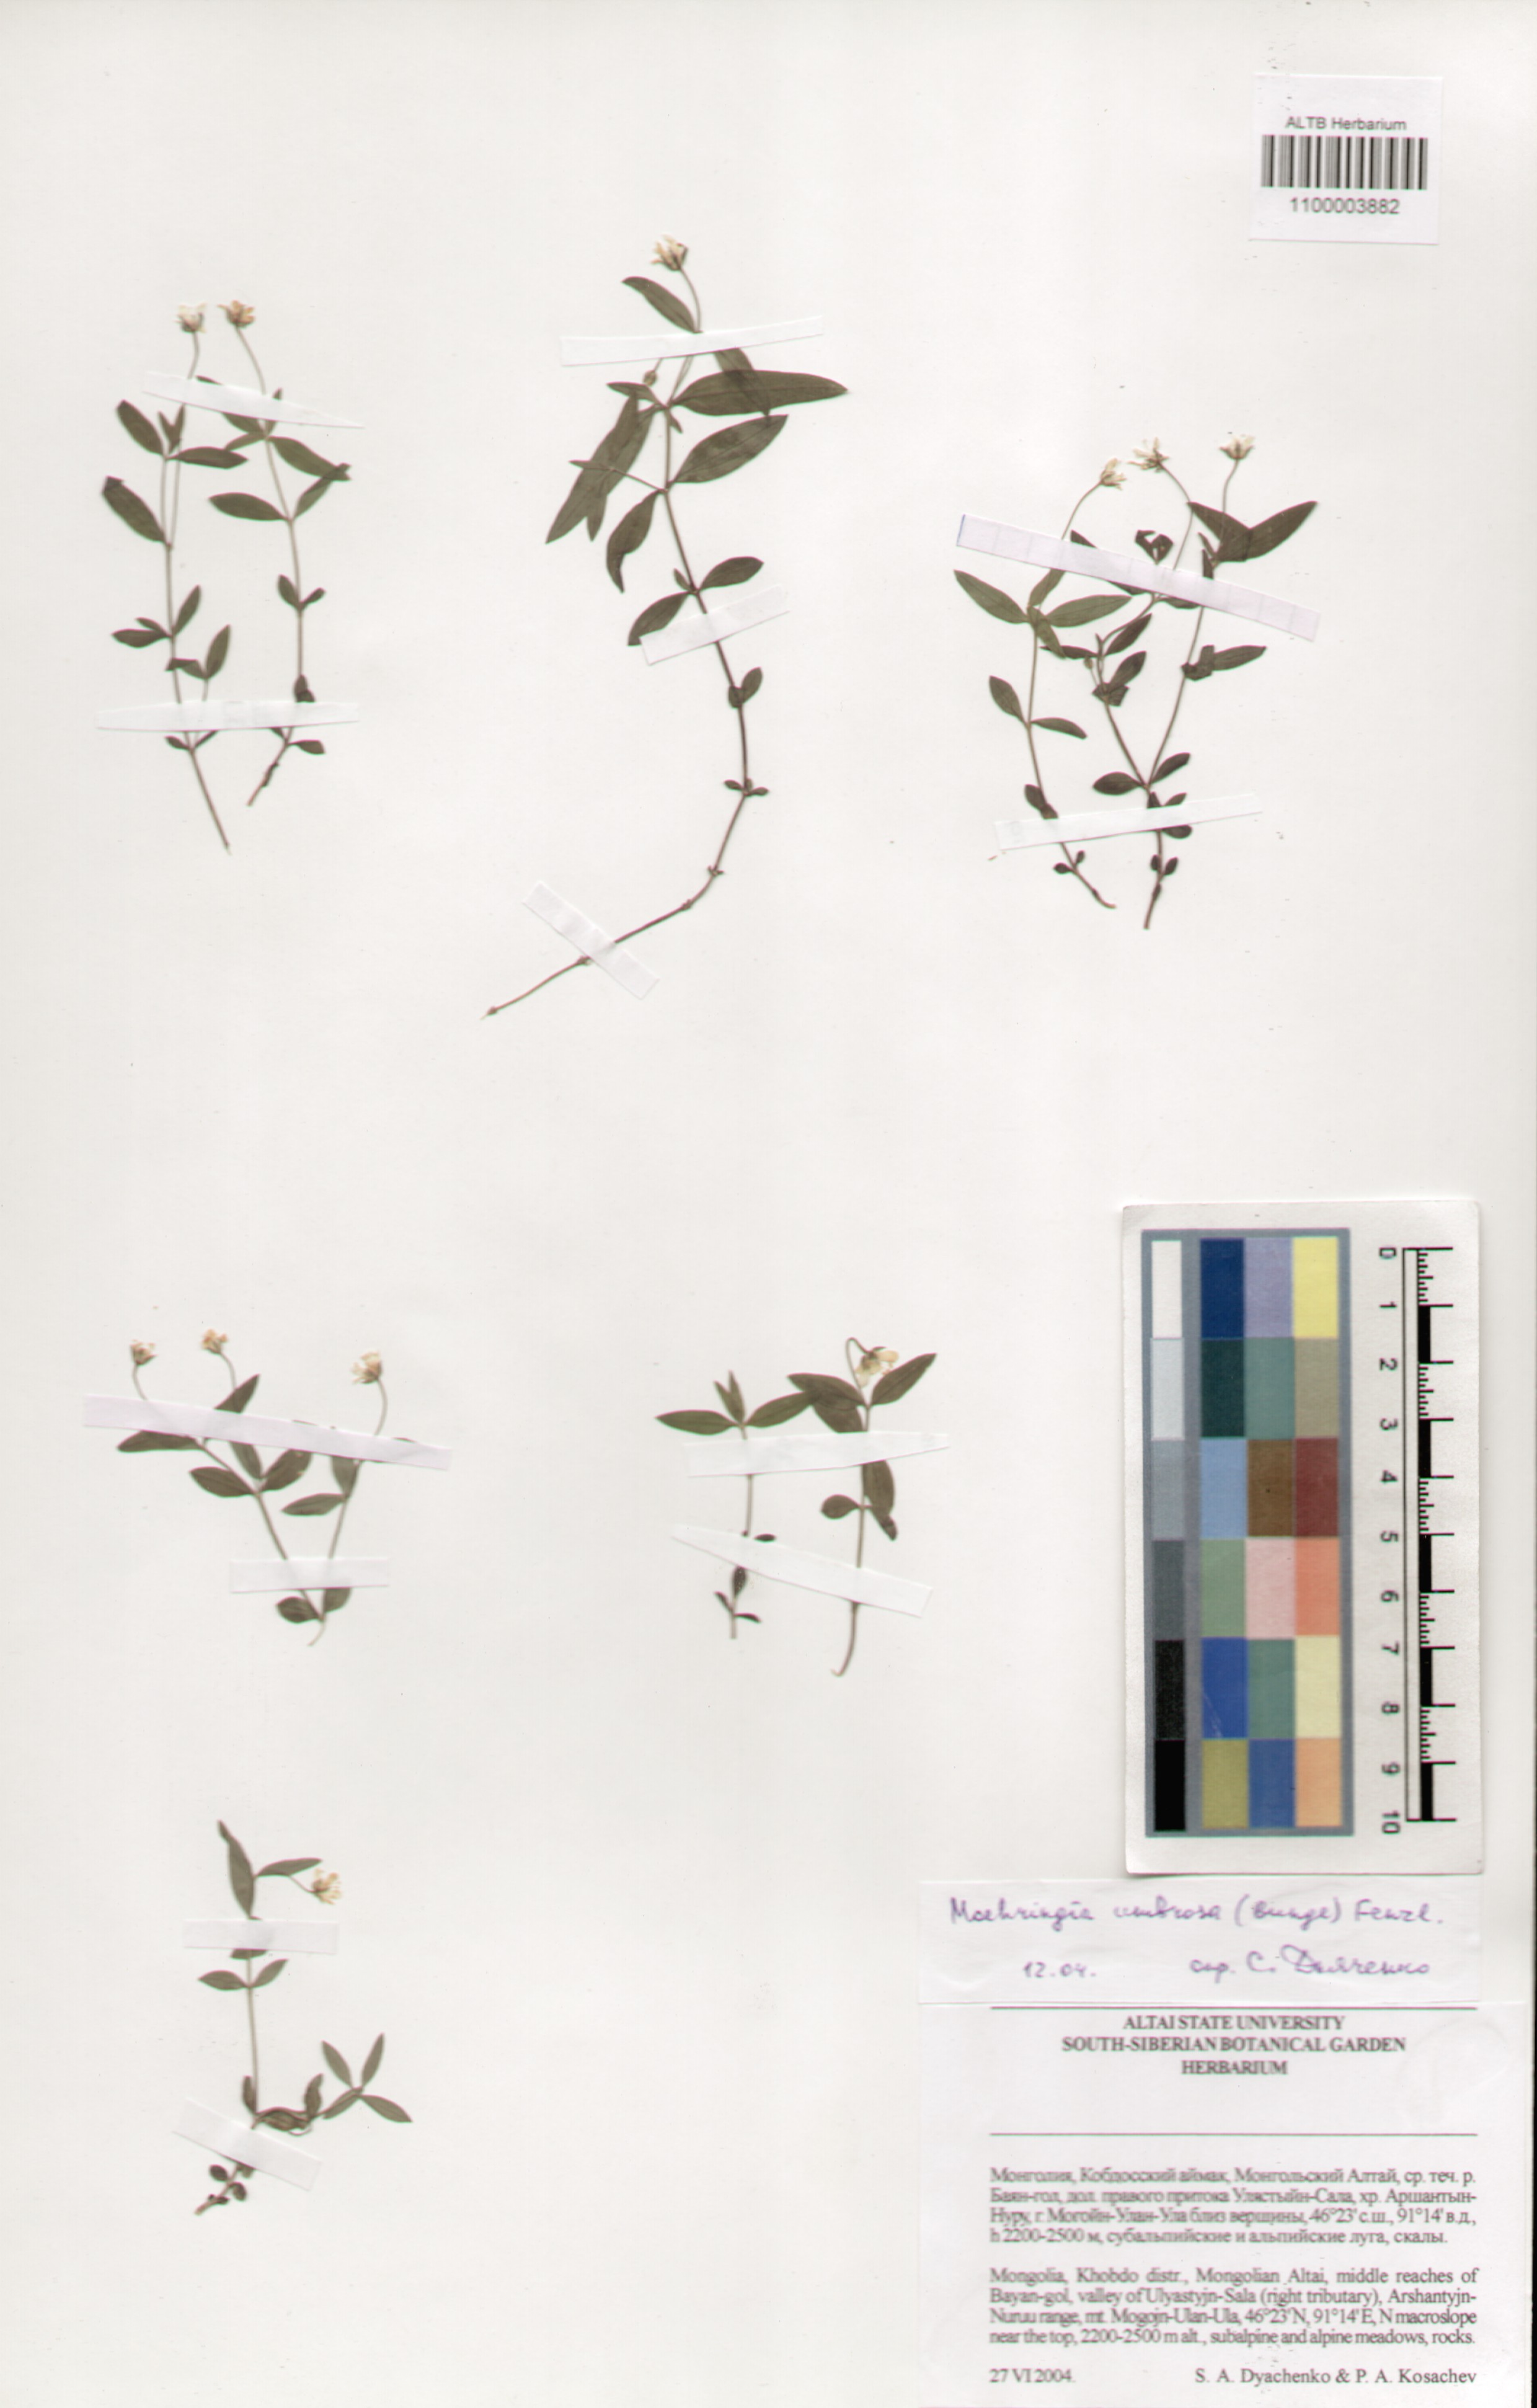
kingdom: Plantae
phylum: Tracheophyta
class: Magnoliopsida
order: Caryophyllales
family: Caryophyllaceae
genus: Moehringia
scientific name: Moehringia umbrosa
